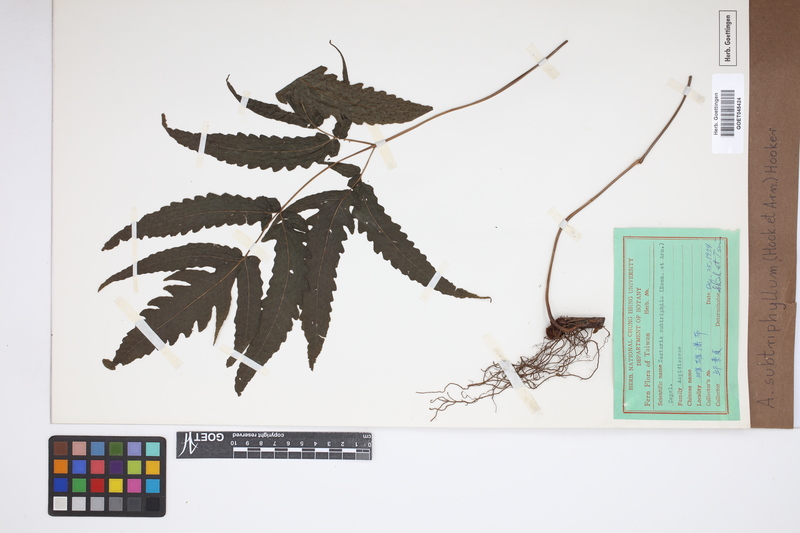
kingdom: Plantae
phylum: Tracheophyta
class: Polypodiopsida
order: Polypodiales
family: Tectariaceae
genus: Tectaria
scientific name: Tectaria subtriphylla
